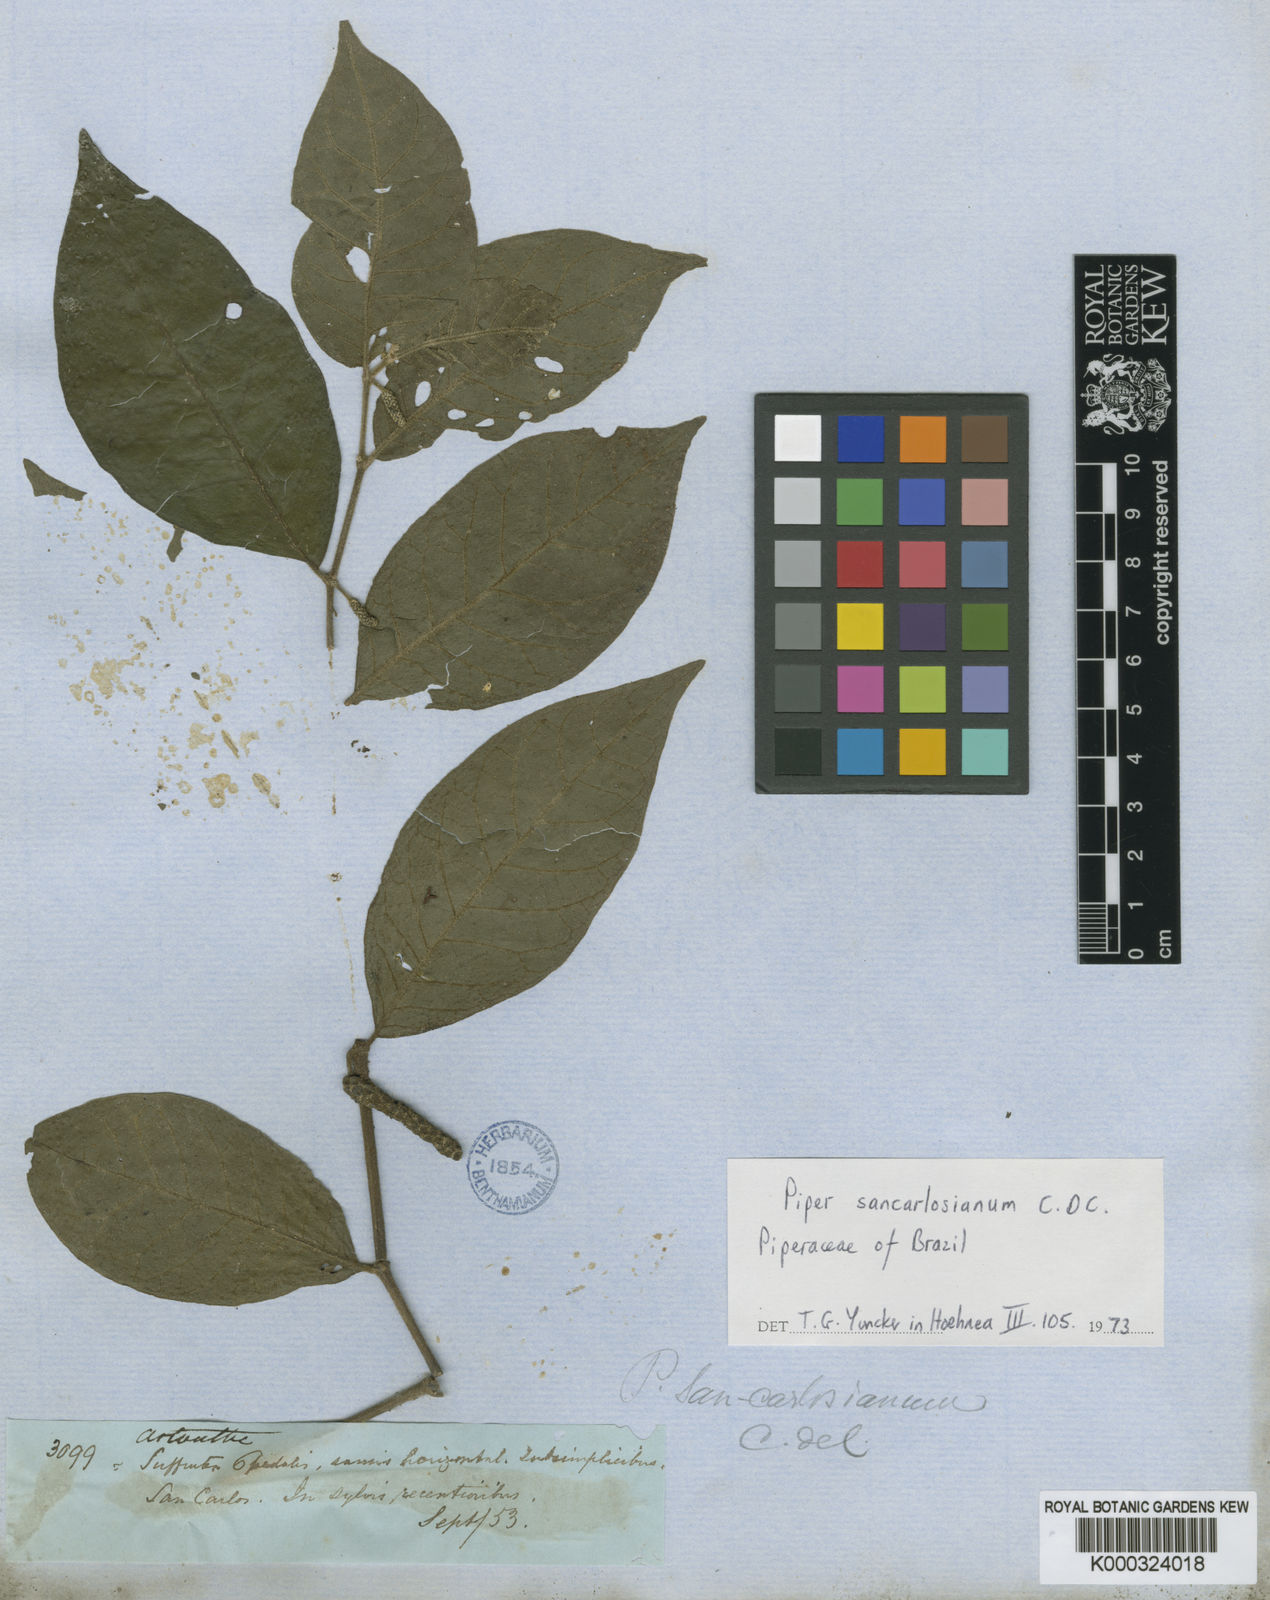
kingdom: Plantae
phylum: Tracheophyta
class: Magnoliopsida
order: Piperales
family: Piperaceae
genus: Piper
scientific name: Piper baccans
